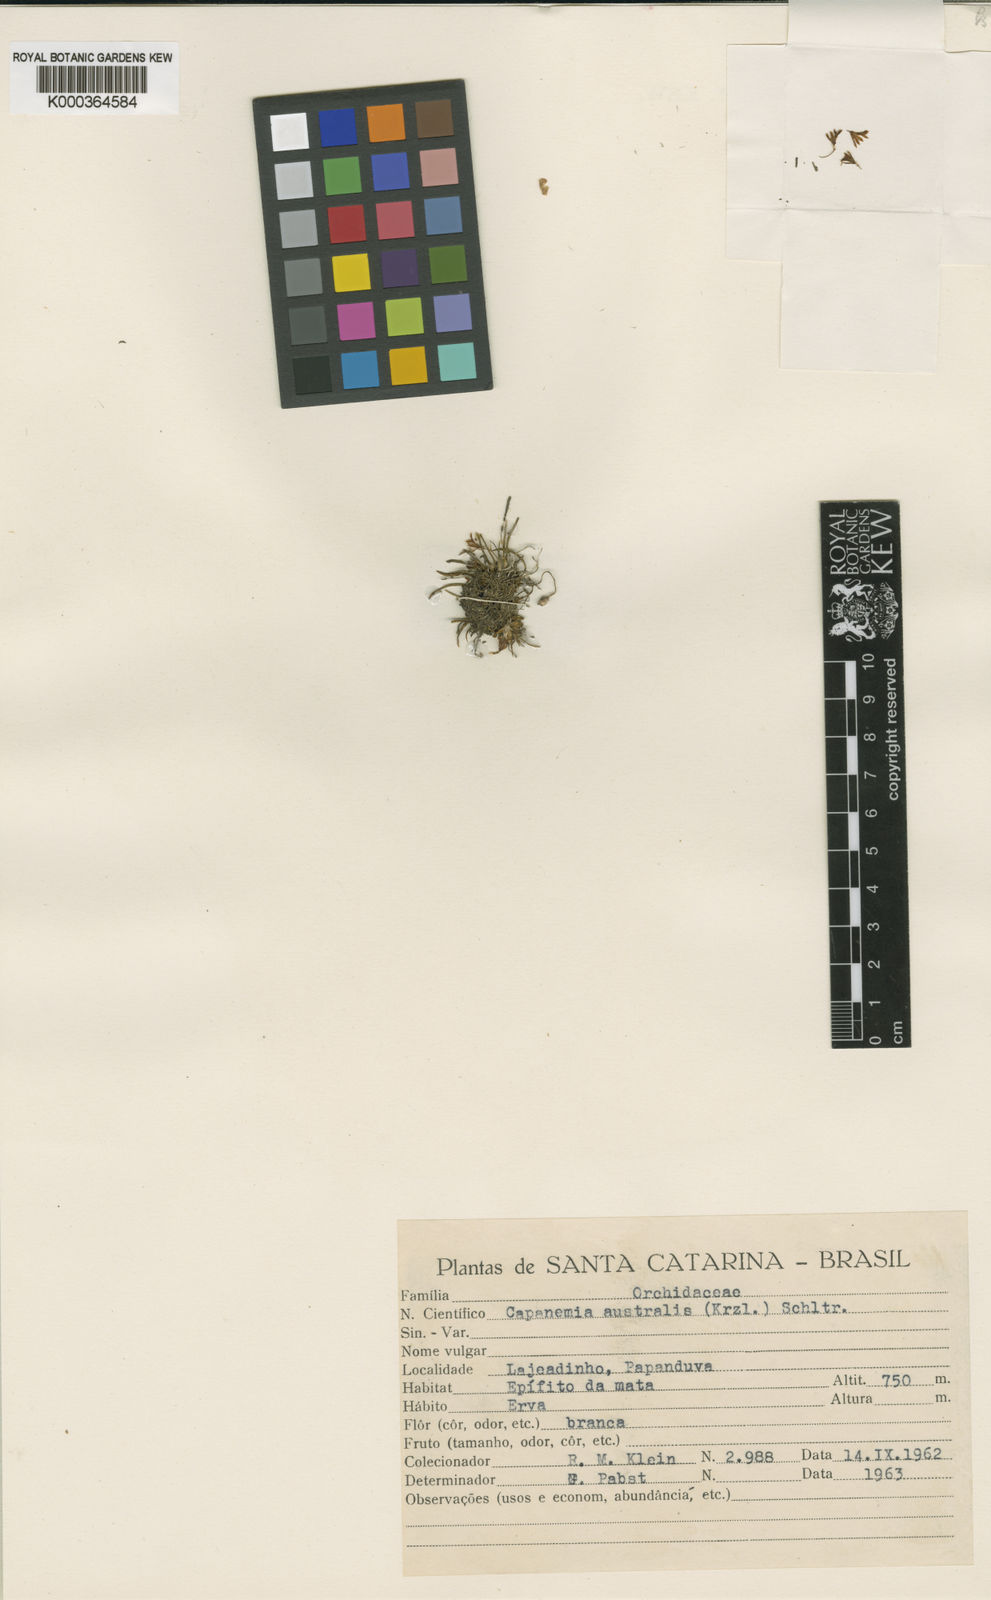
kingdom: Plantae
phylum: Tracheophyta
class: Liliopsida
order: Asparagales
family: Orchidaceae
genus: Capanemia
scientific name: Capanemia micromera
